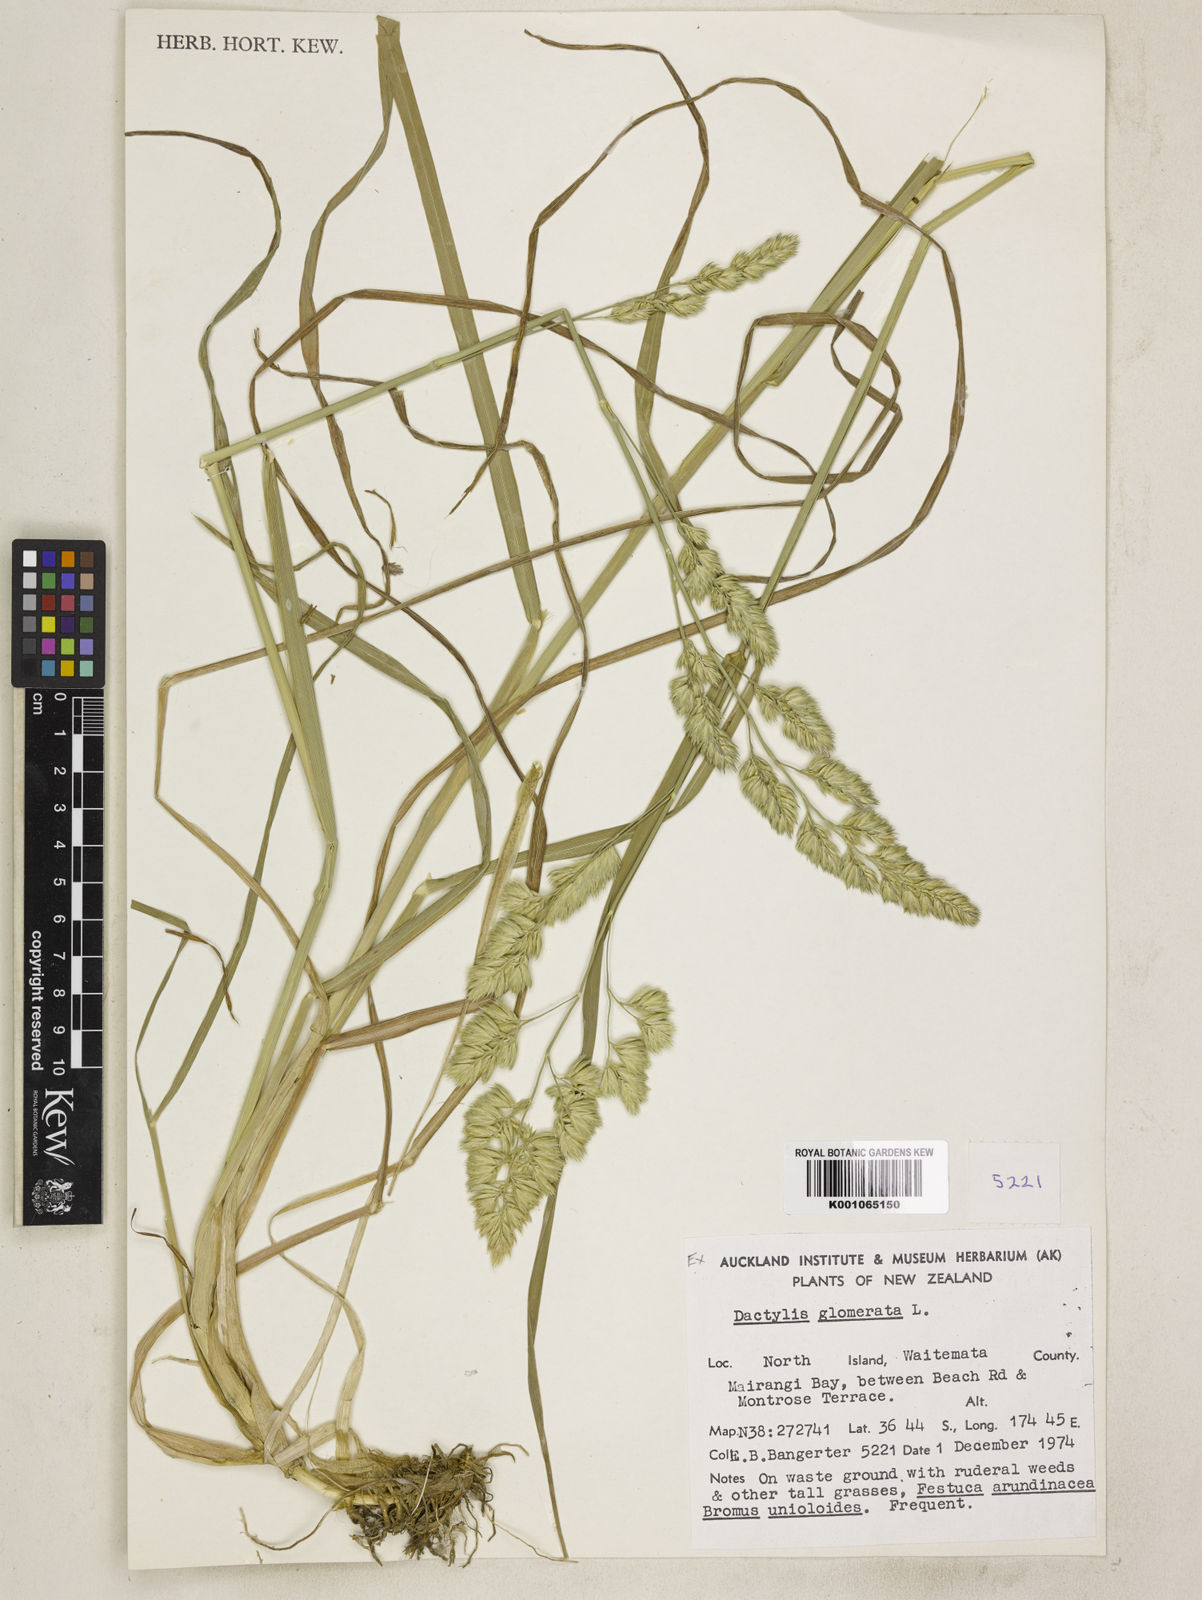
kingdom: Plantae
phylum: Tracheophyta
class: Liliopsida
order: Poales
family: Poaceae
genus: Dactylis
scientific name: Dactylis glomerata
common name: Orchardgrass
